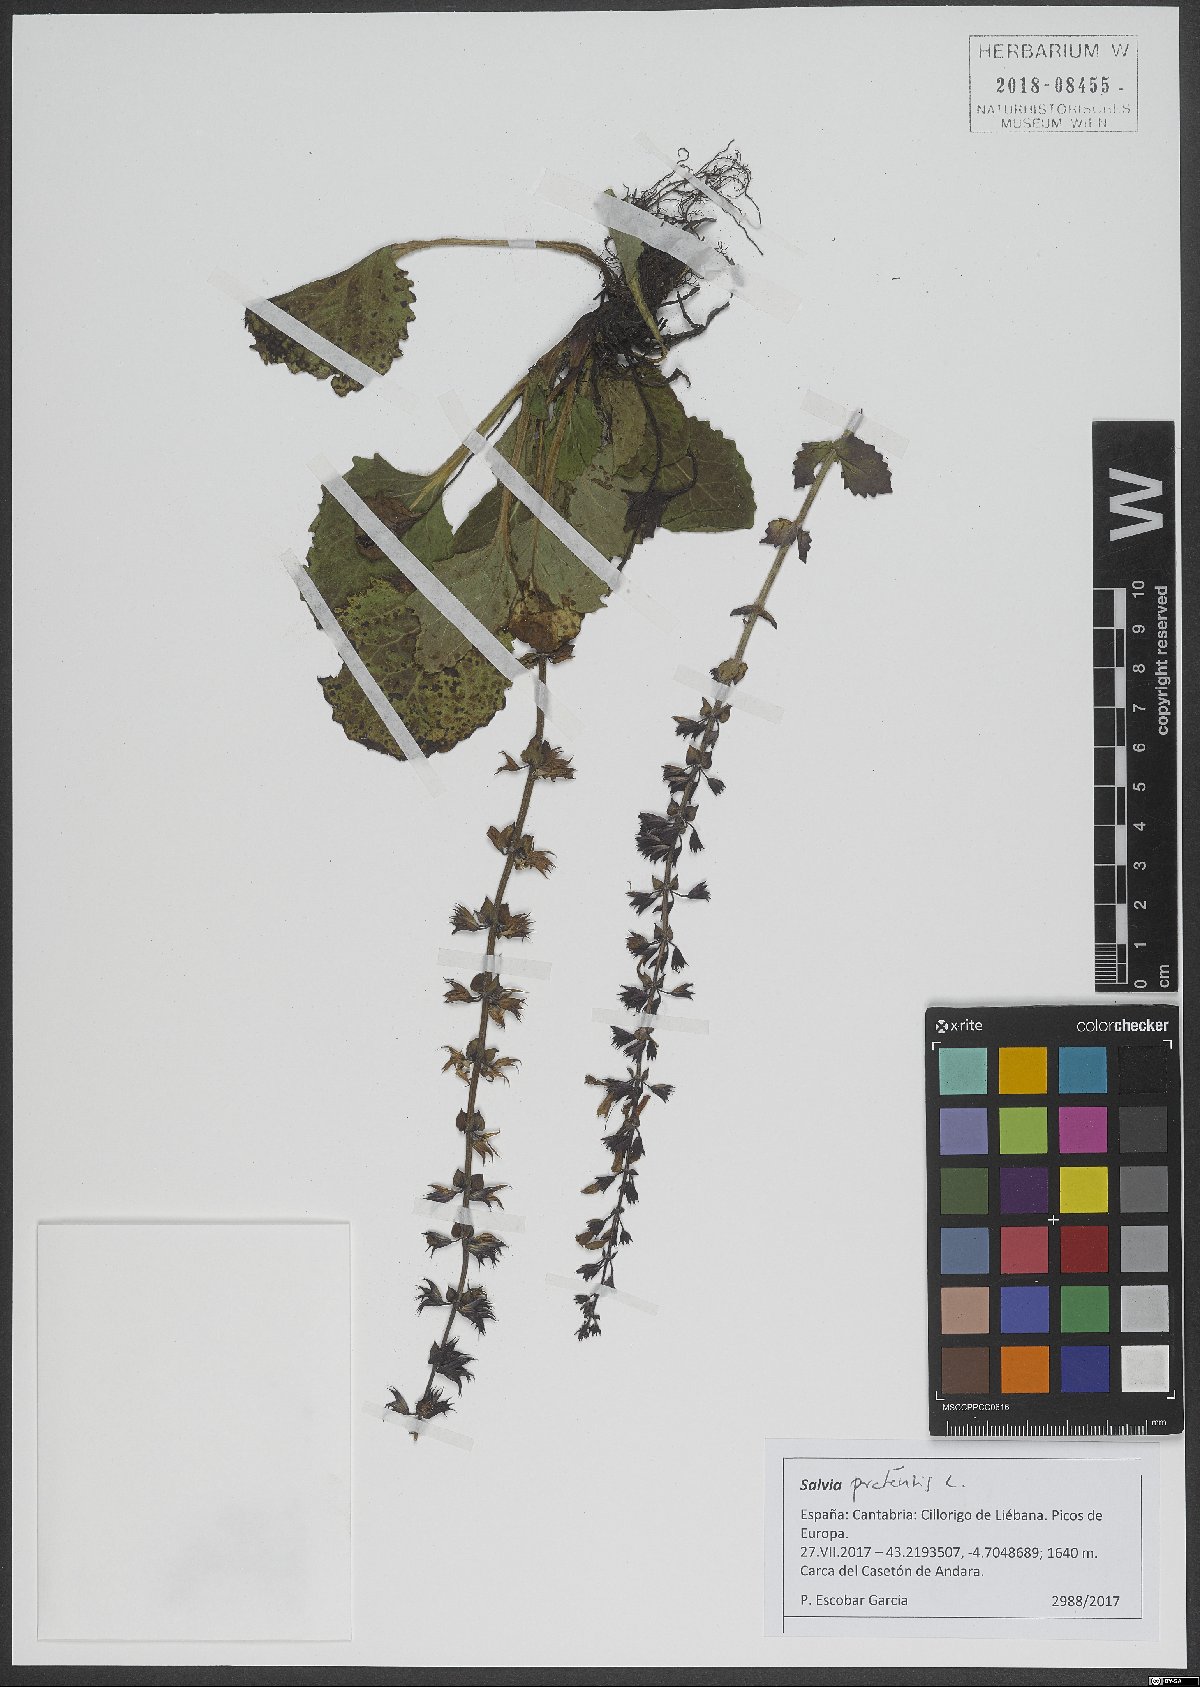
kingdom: Plantae
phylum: Tracheophyta
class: Magnoliopsida
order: Lamiales
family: Lamiaceae
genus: Salvia
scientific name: Salvia pratensis
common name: Meadow sage
